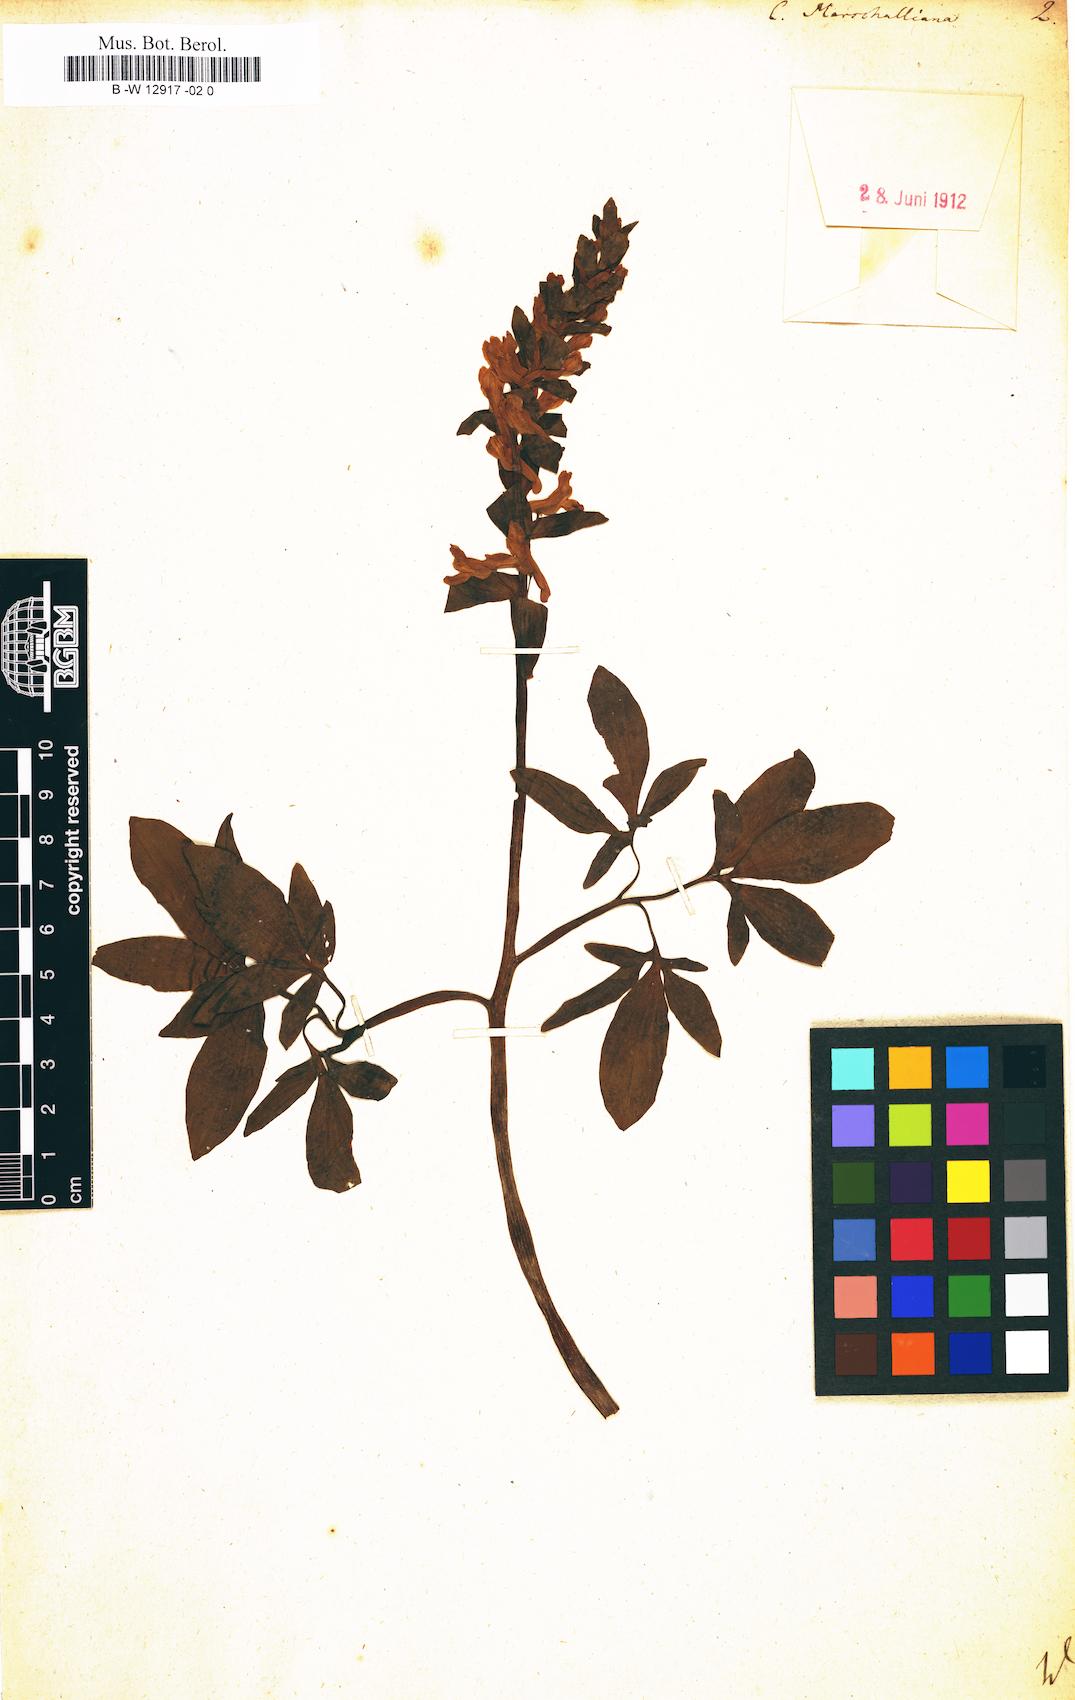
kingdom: Plantae
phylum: Tracheophyta
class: Magnoliopsida
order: Ranunculales
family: Papaveraceae
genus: Fumaria
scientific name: Fumaria marschalliana
